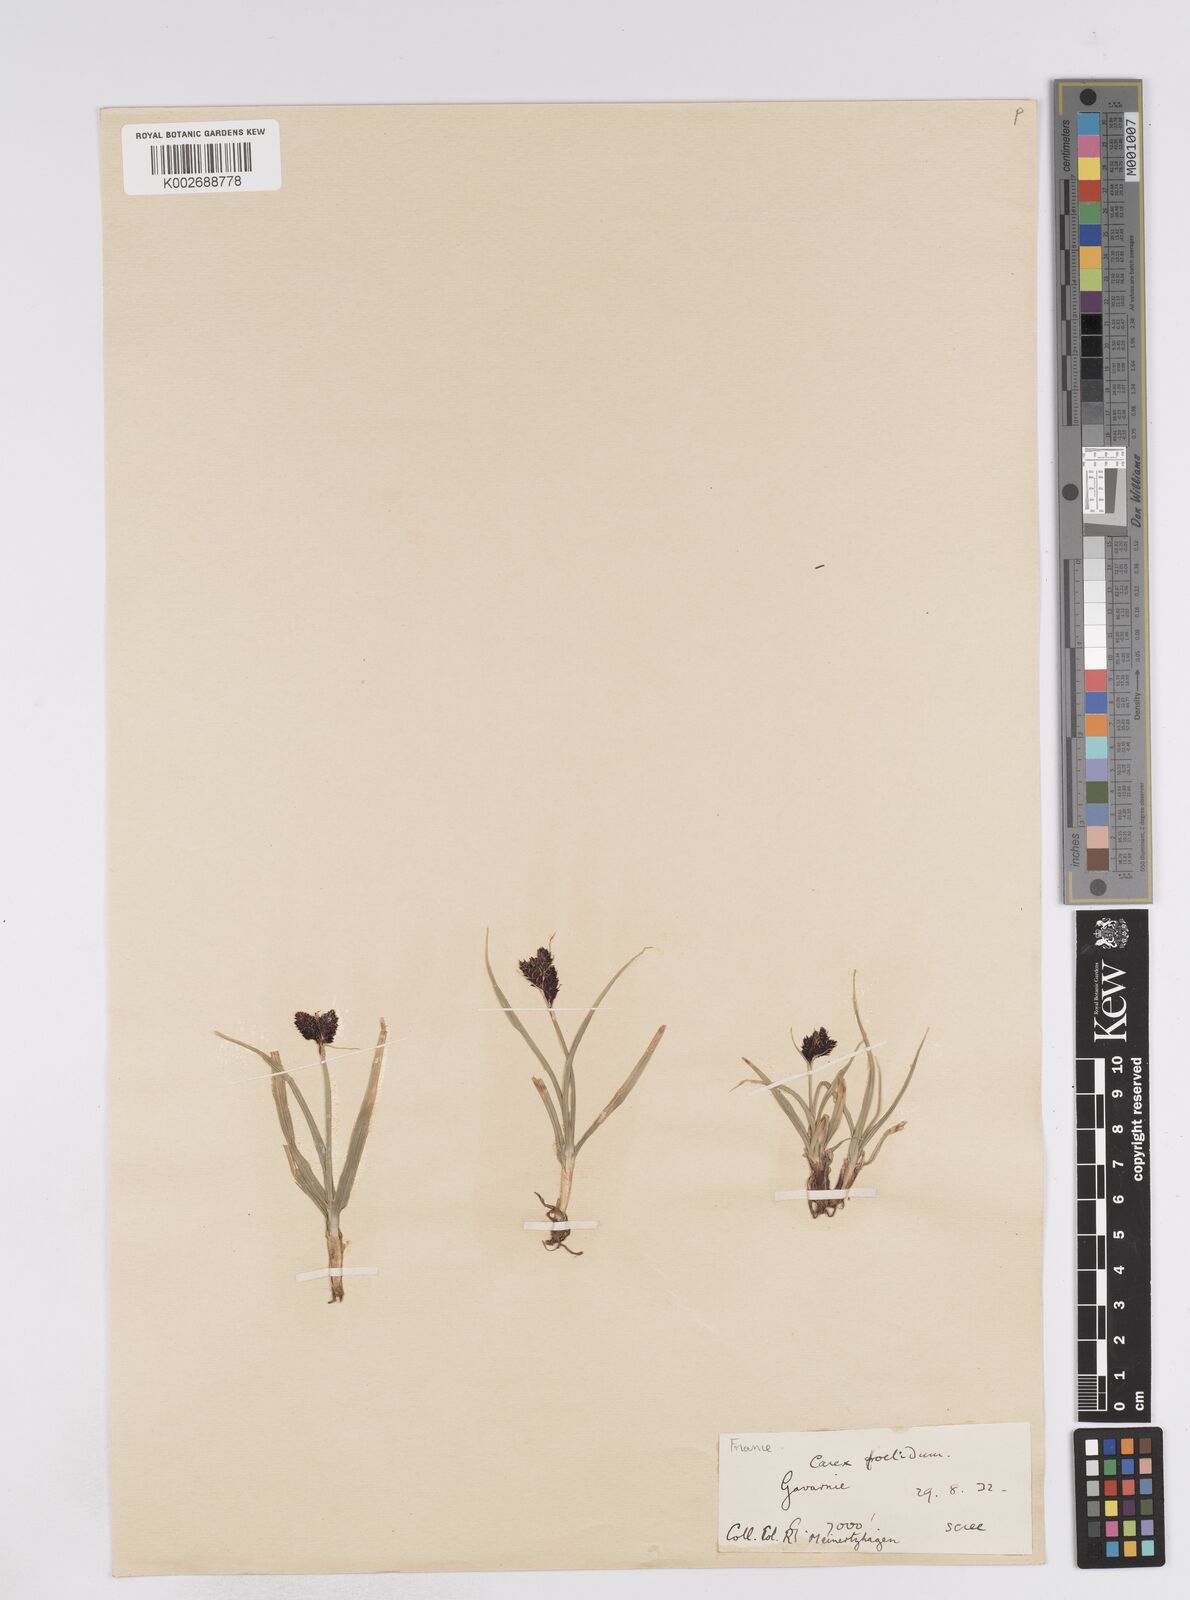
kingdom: Plantae
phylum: Tracheophyta
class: Liliopsida
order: Poales
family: Cyperaceae
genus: Carex
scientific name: Carex parviflora
